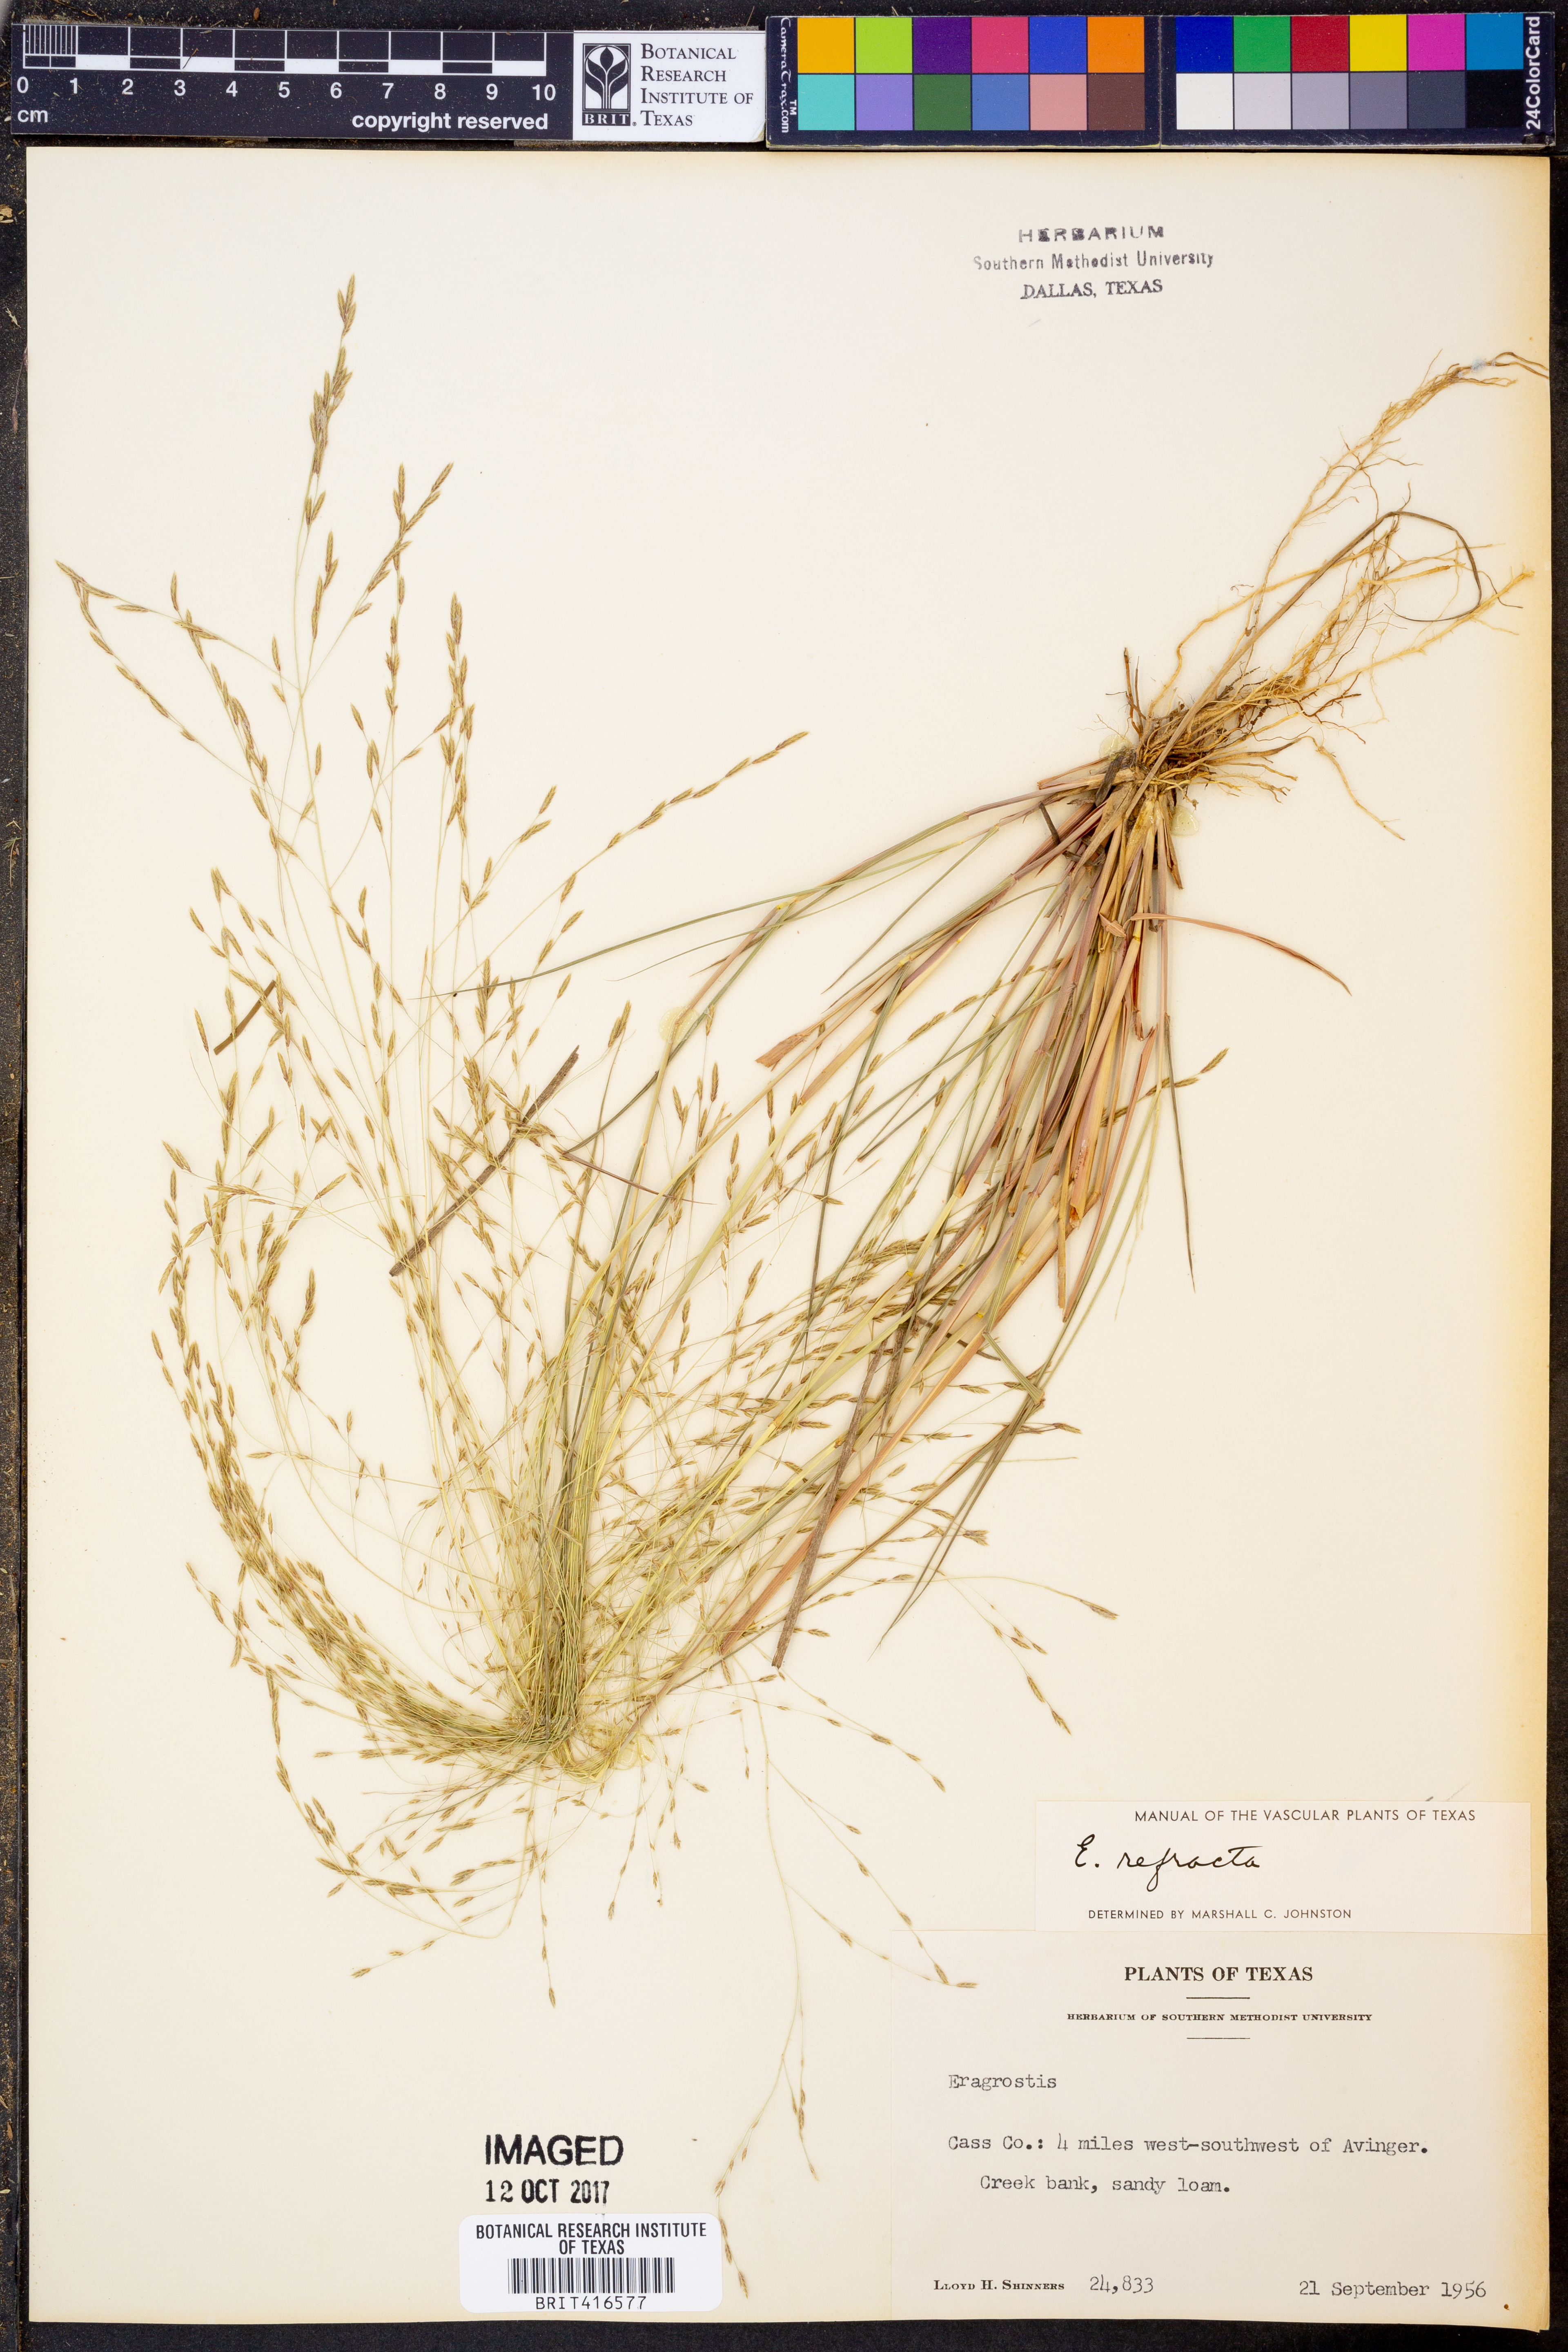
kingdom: Plantae
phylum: Tracheophyta
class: Liliopsida
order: Poales
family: Poaceae
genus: Eragrostis
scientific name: Eragrostis refracta
